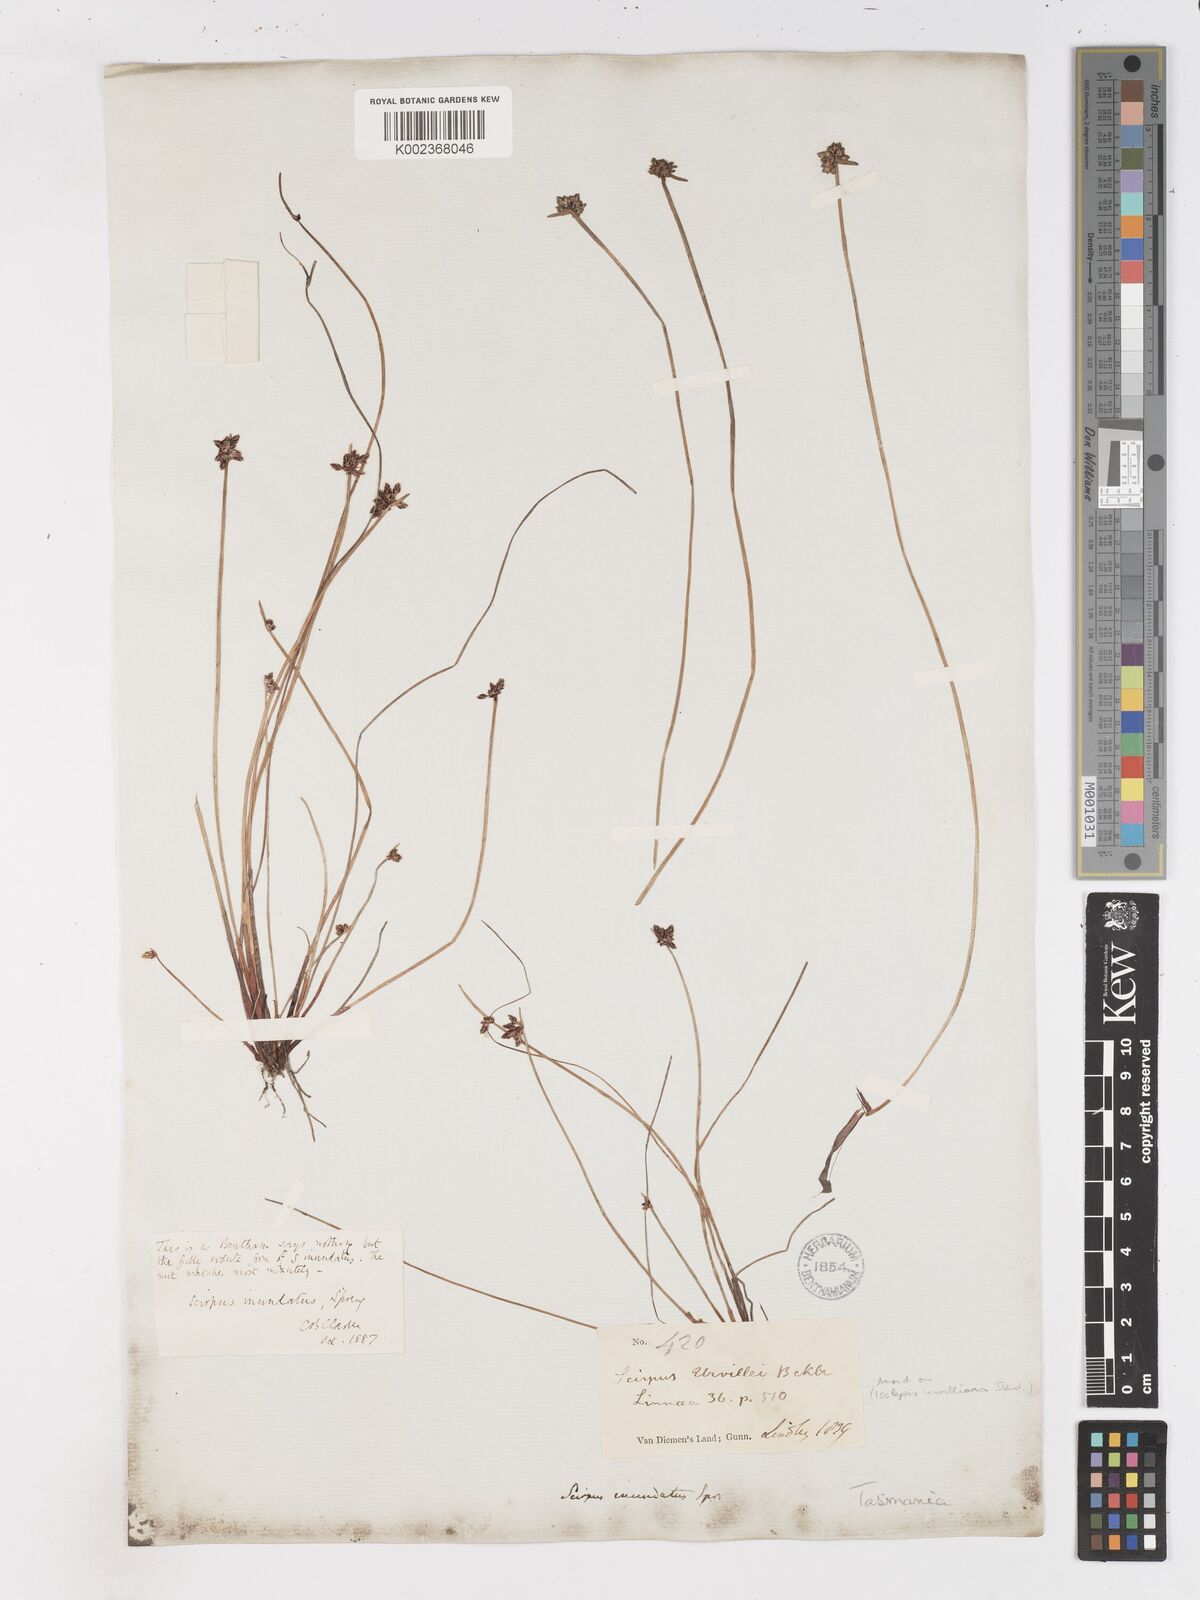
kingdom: Plantae
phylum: Tracheophyta
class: Liliopsida
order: Poales
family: Cyperaceae
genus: Isolepis
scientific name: Isolepis inundata
